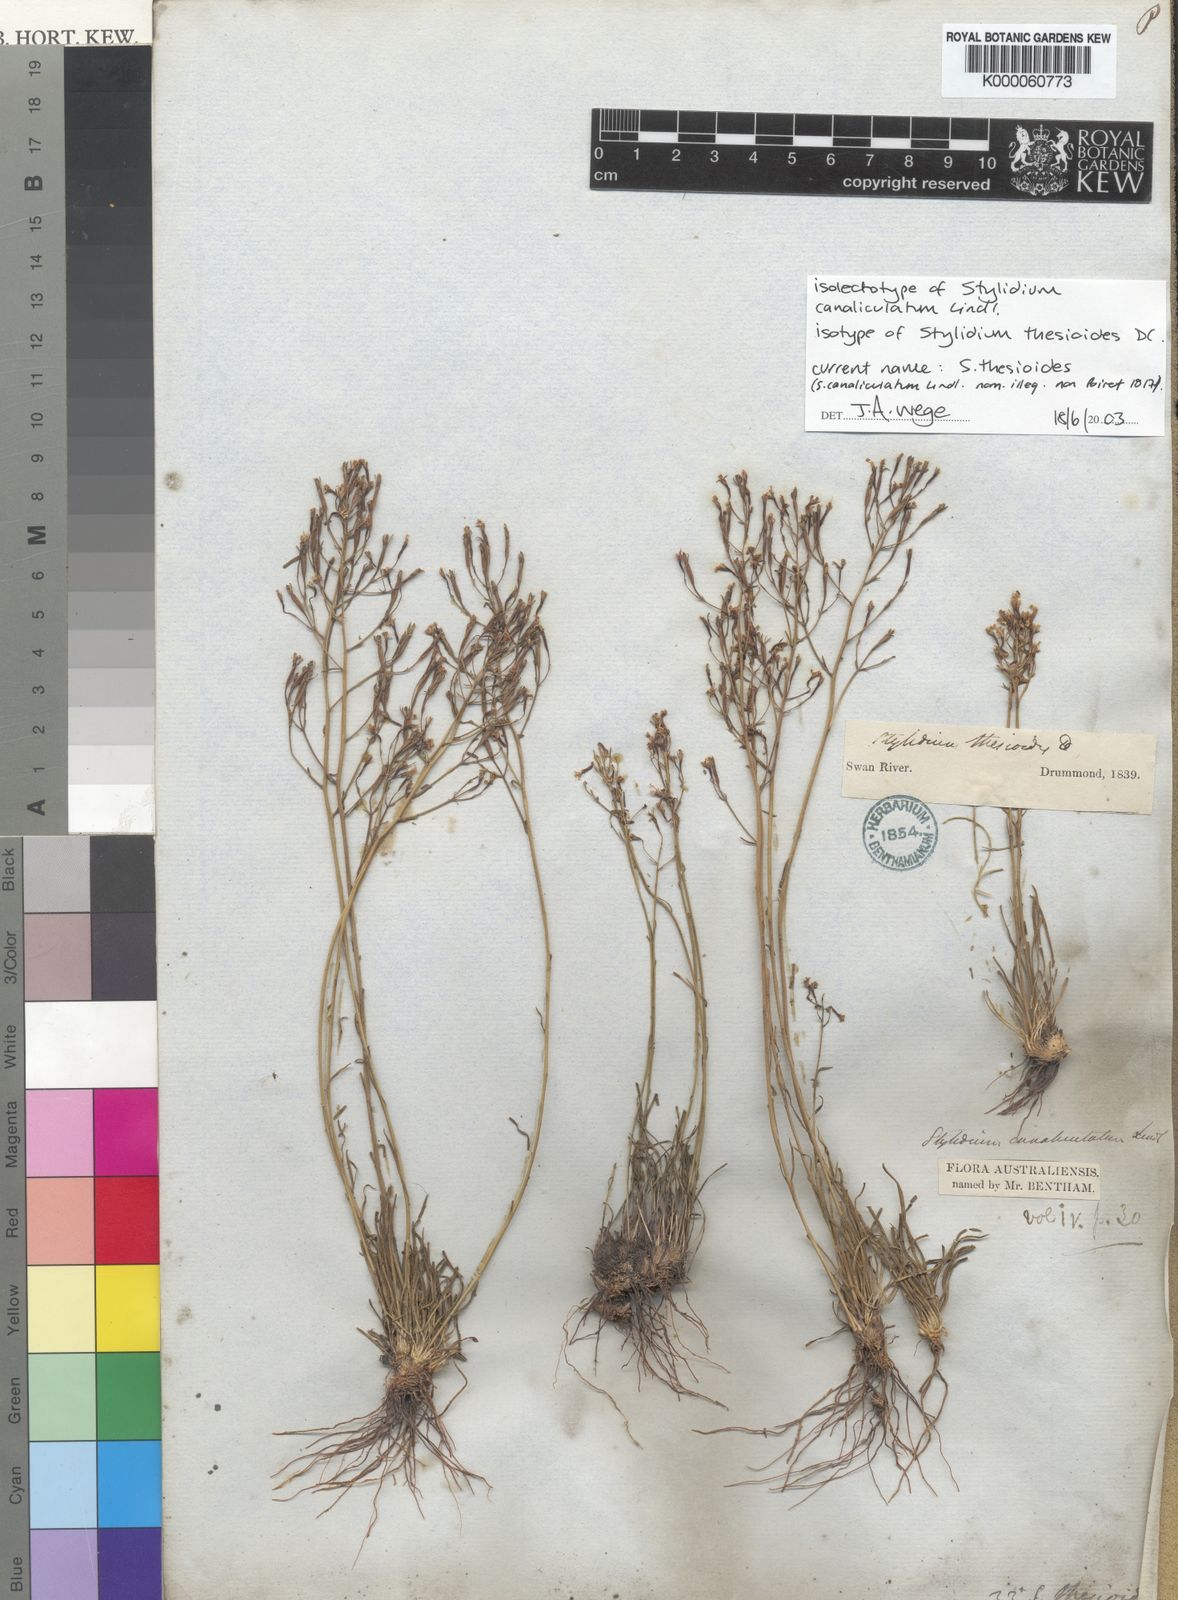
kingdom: Plantae
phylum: Tracheophyta
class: Magnoliopsida
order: Asterales
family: Stylidiaceae
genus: Stylidium
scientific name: Stylidium
